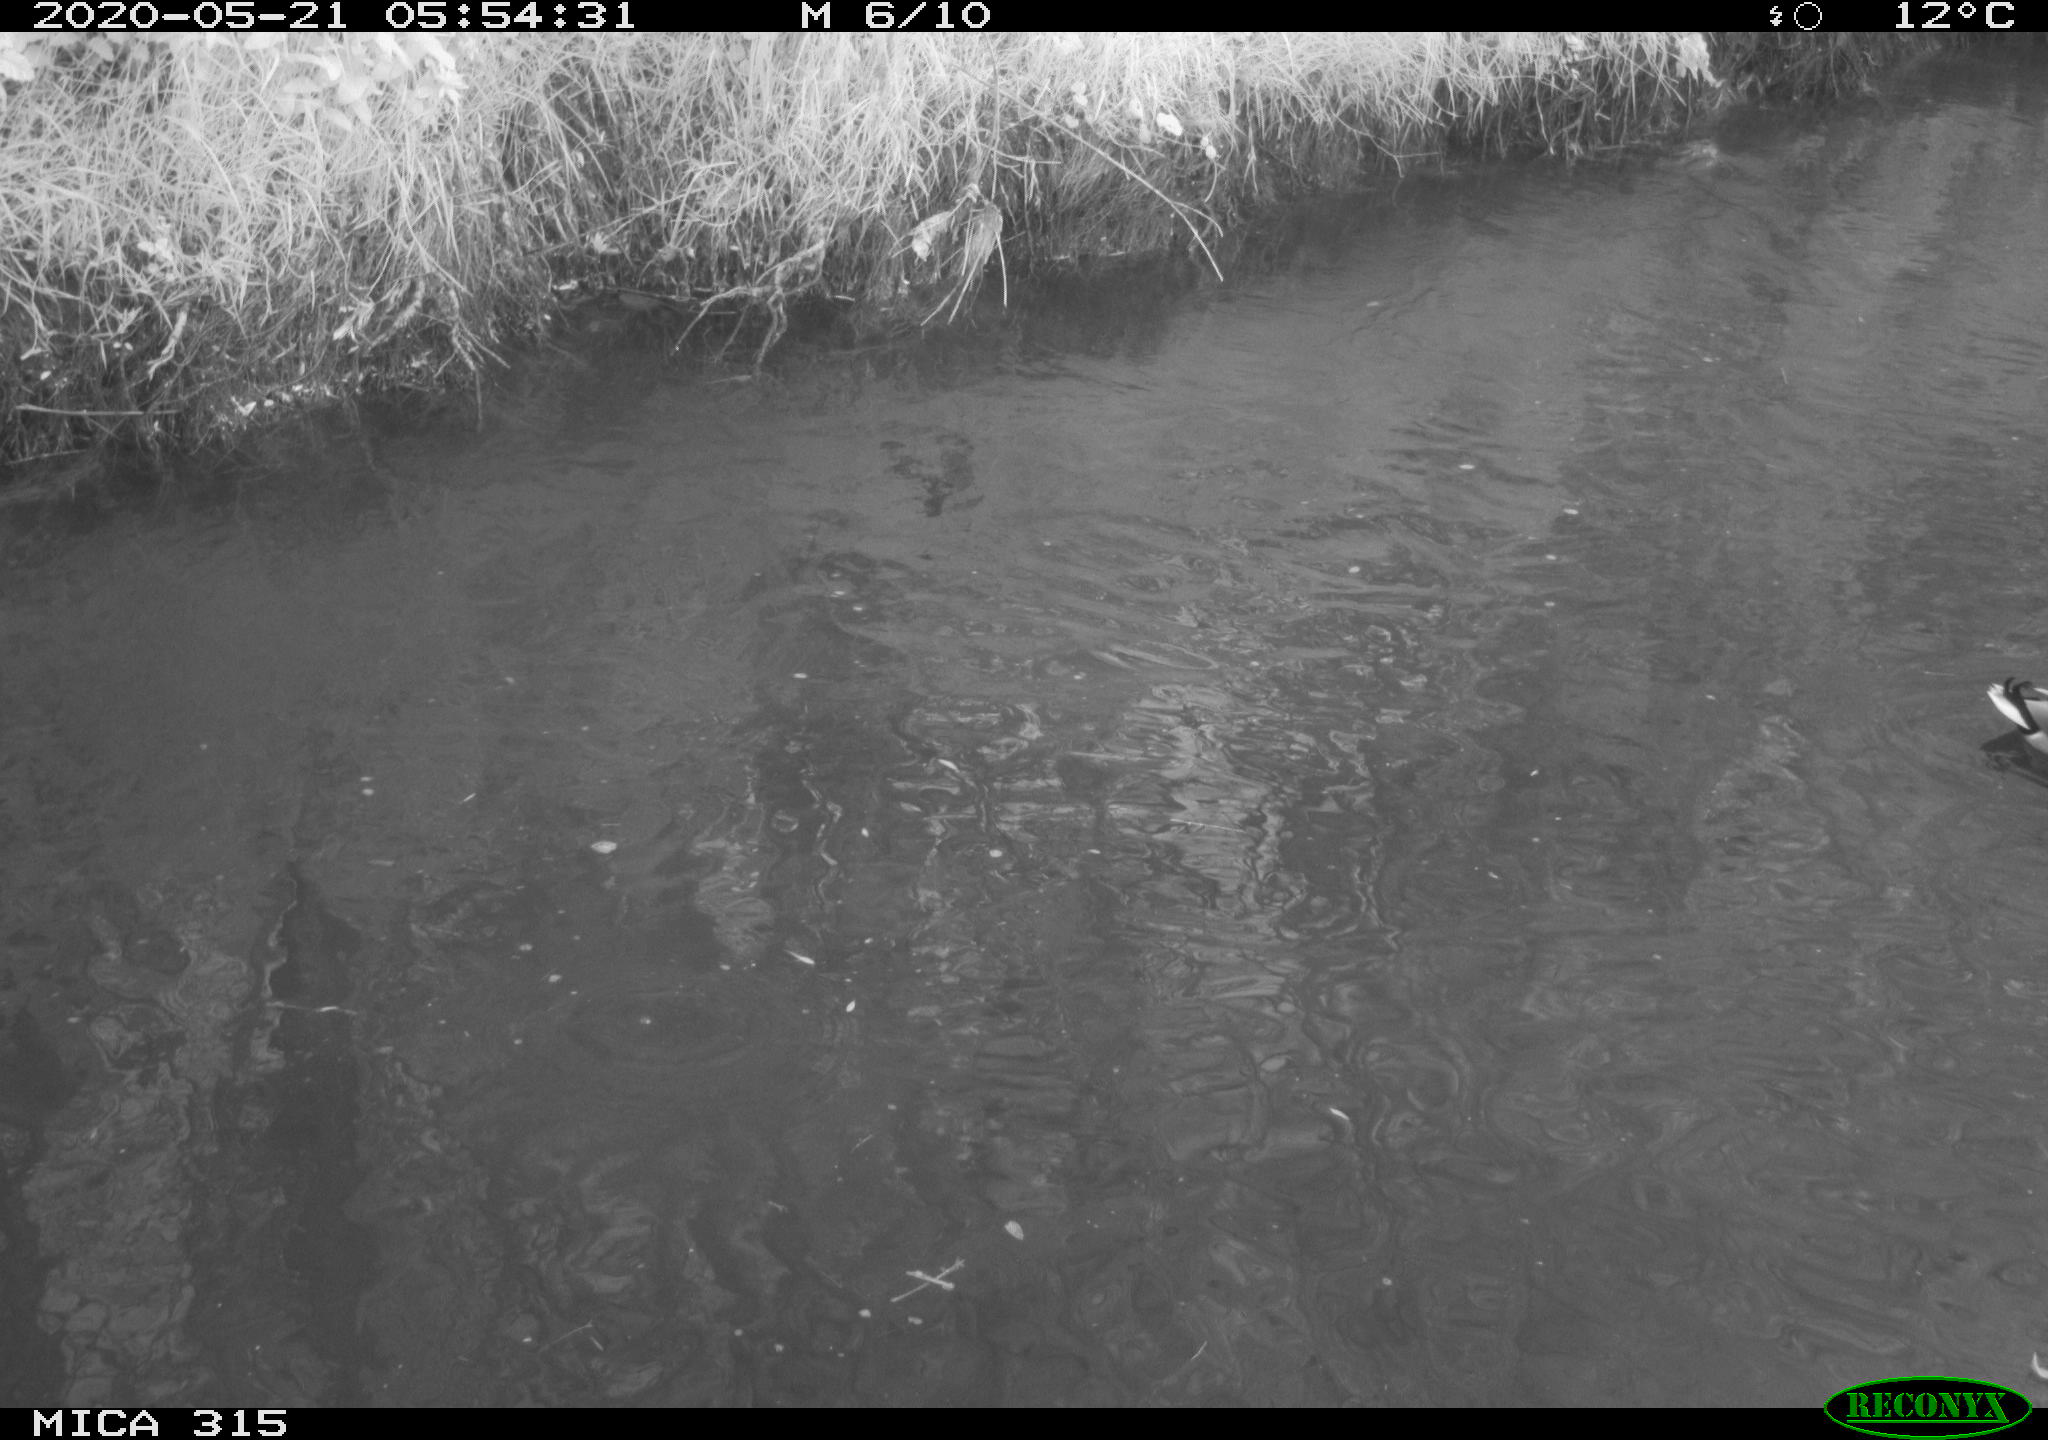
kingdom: Animalia
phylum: Chordata
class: Aves
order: Anseriformes
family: Anatidae
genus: Anas
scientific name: Anas platyrhynchos
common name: Mallard
